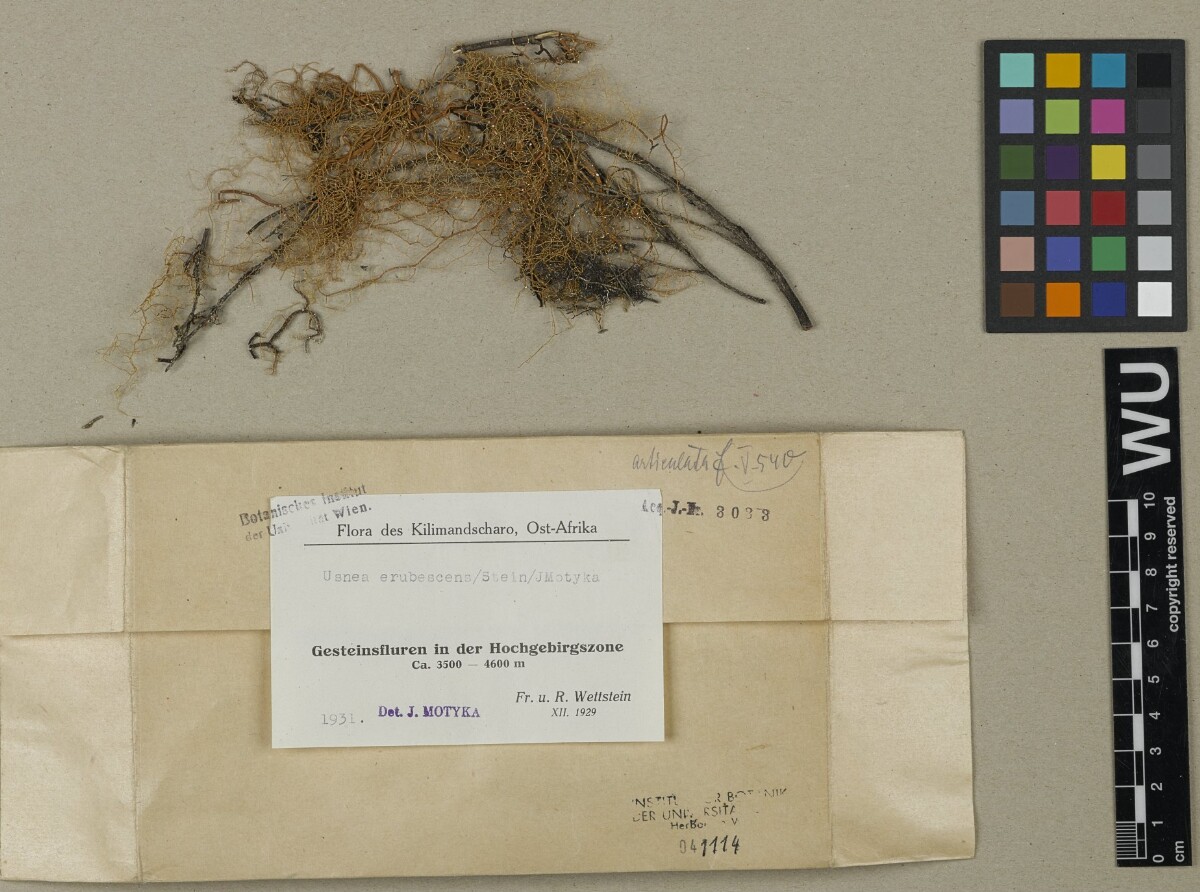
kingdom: Fungi
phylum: Ascomycota
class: Lecanoromycetes
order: Lecanorales
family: Parmeliaceae
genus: Usnea
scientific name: Usnea
